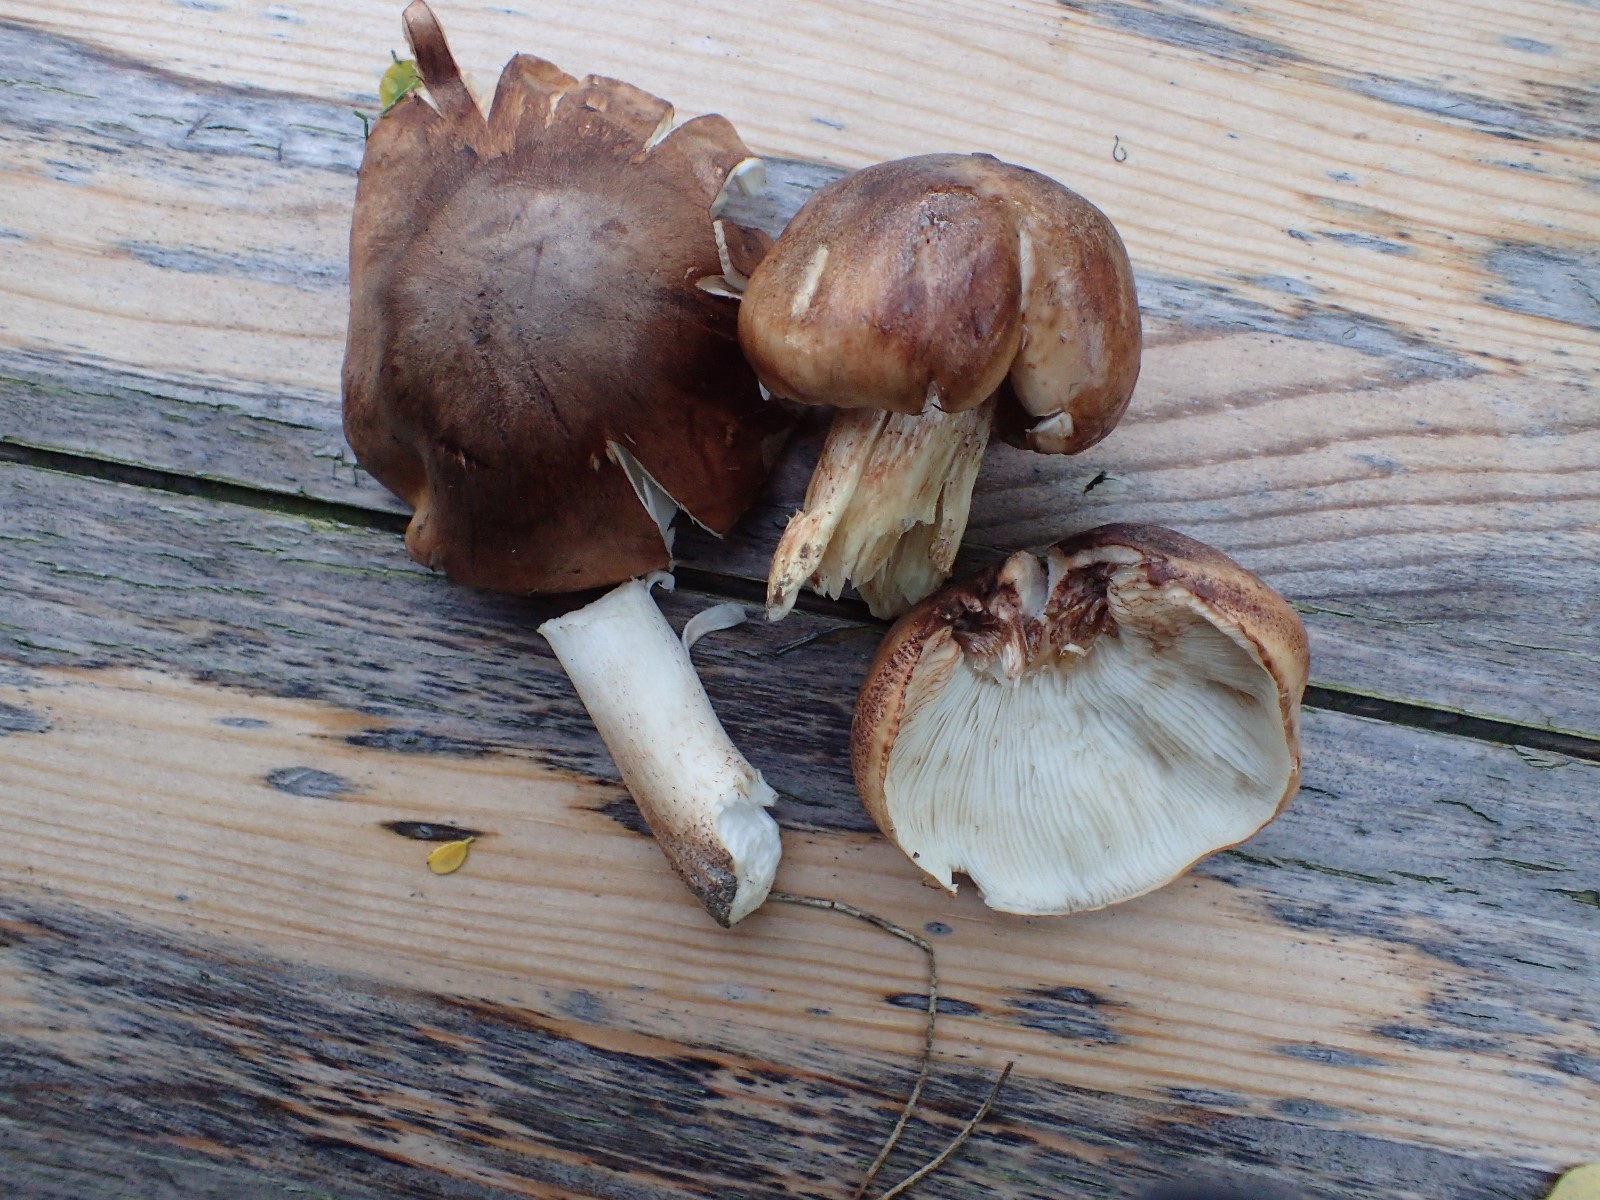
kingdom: Fungi
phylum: Basidiomycota
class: Agaricomycetes
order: Agaricales
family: Tricholomataceae
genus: Tricholoma
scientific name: Tricholoma populinum
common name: poppel-ridderhat
